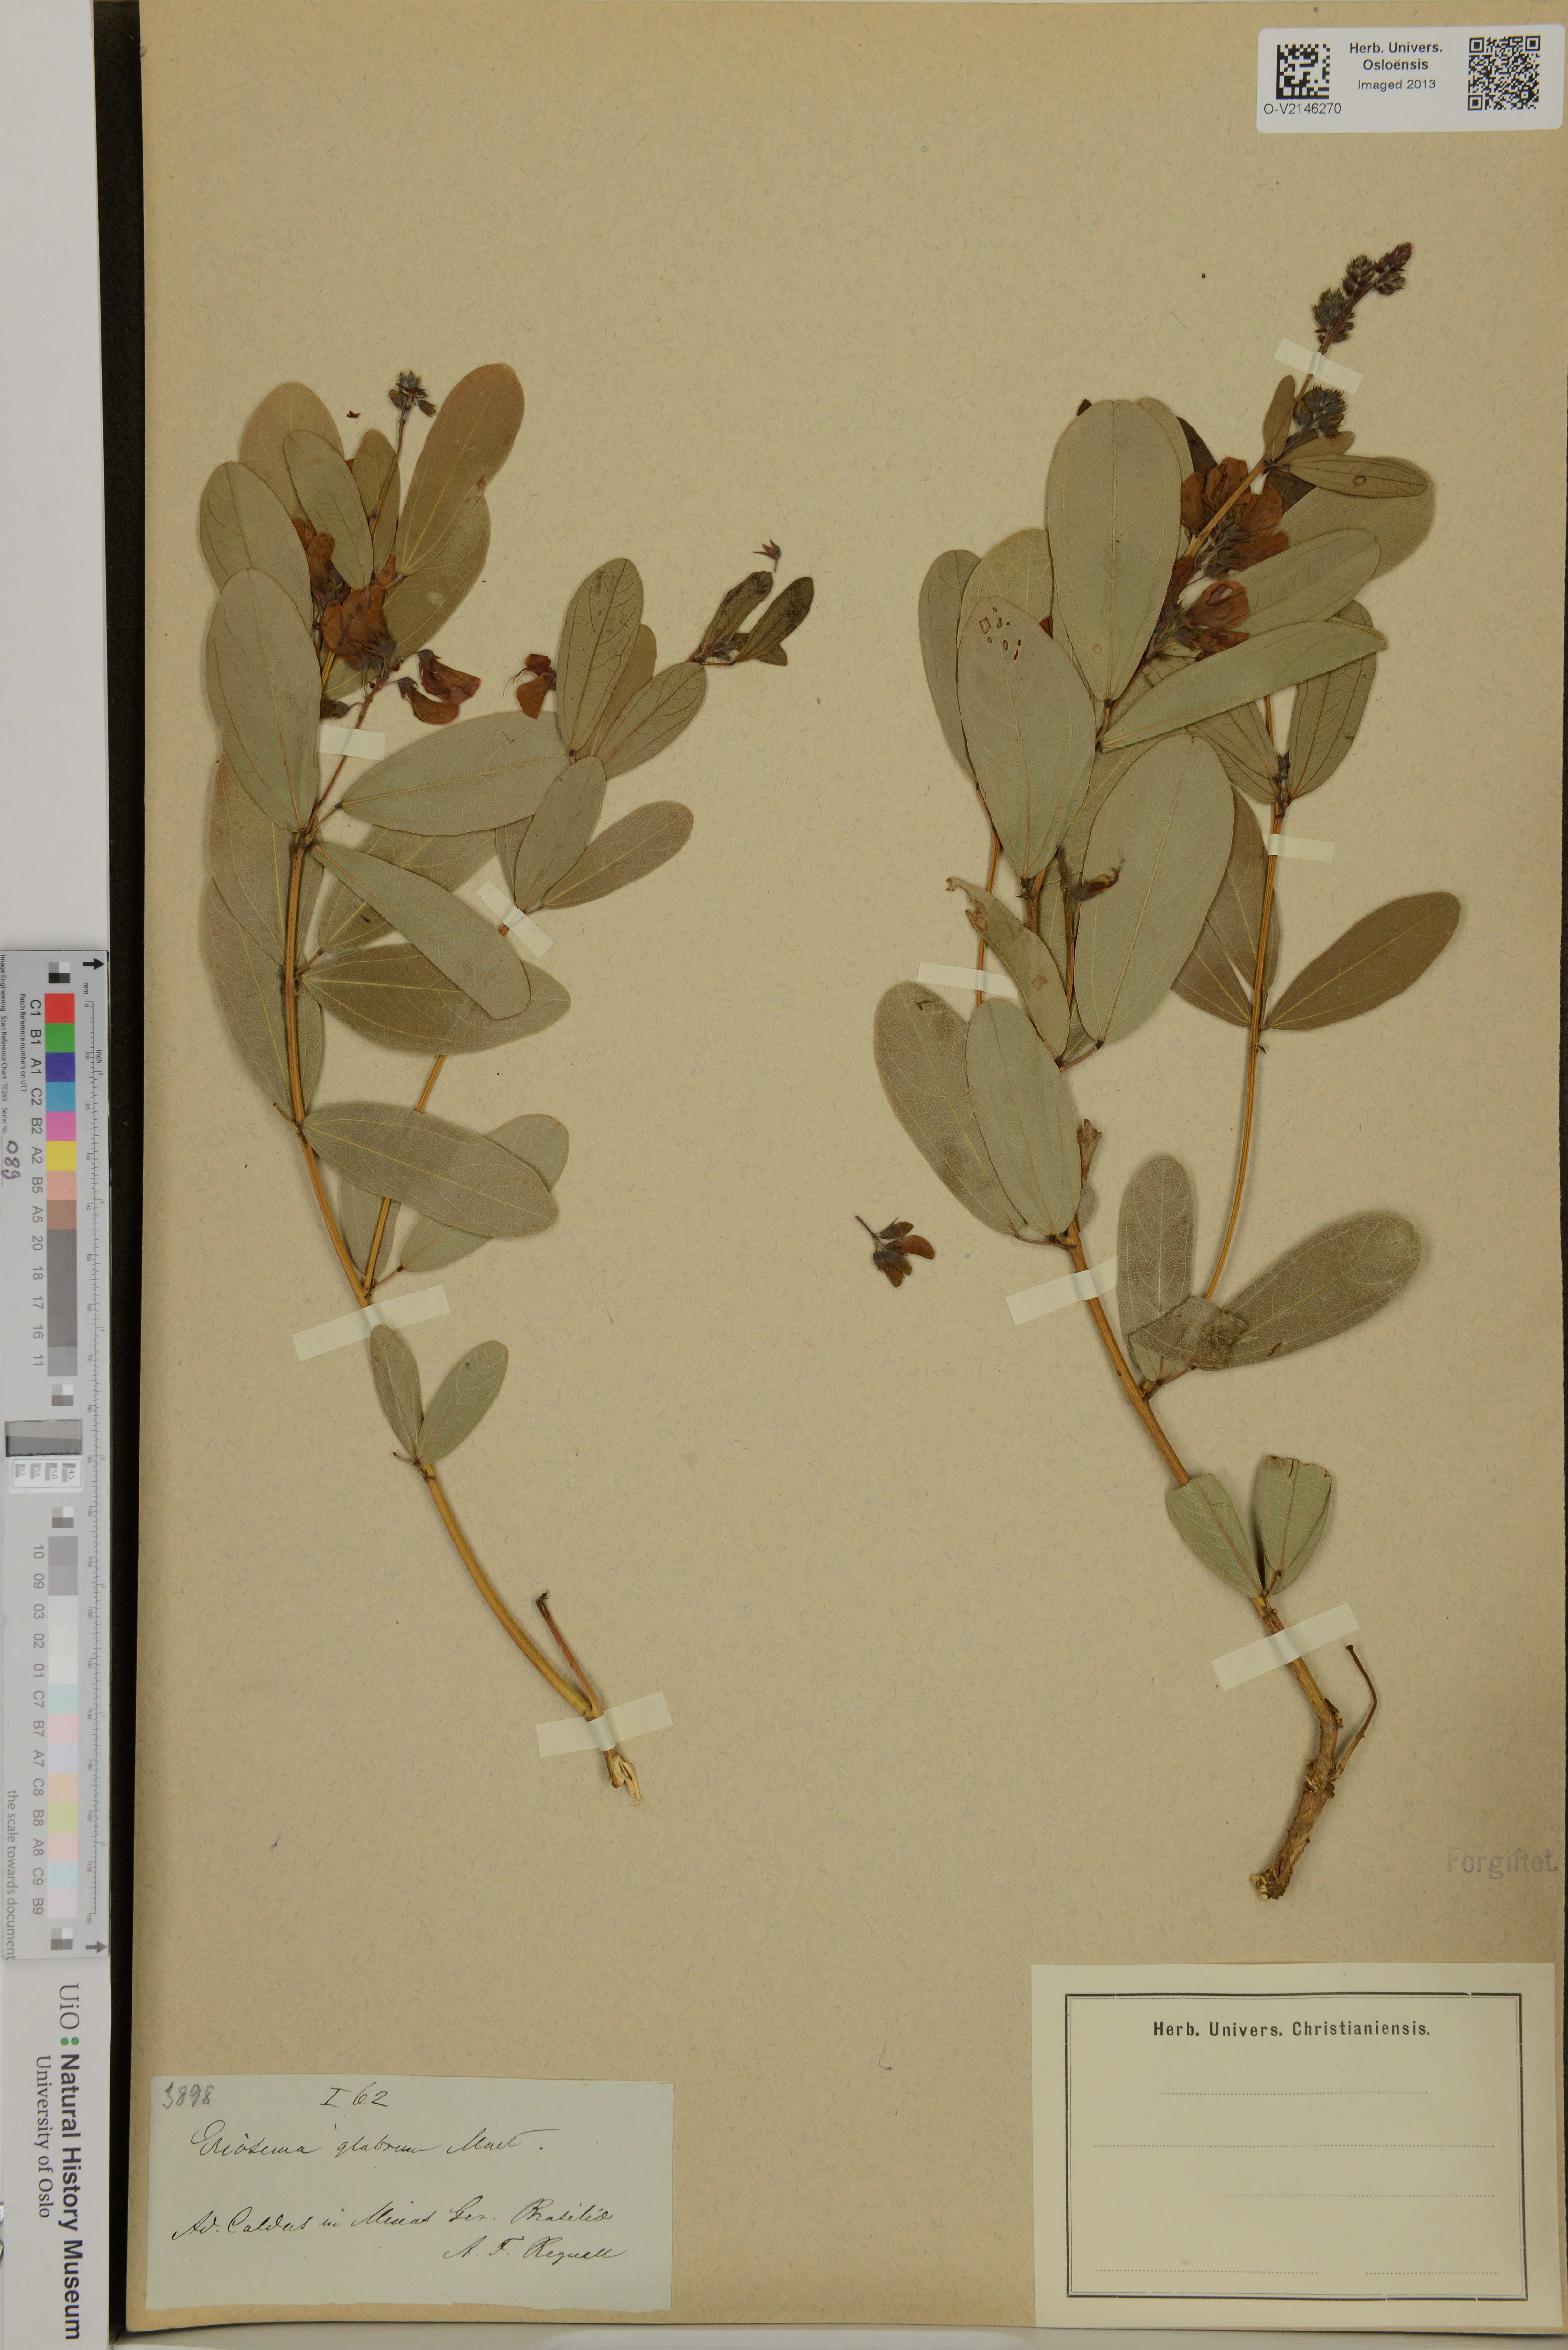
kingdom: Plantae
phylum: Tracheophyta
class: Magnoliopsida
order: Fabales
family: Fabaceae
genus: Eriosema
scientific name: Eriosema glabrum
